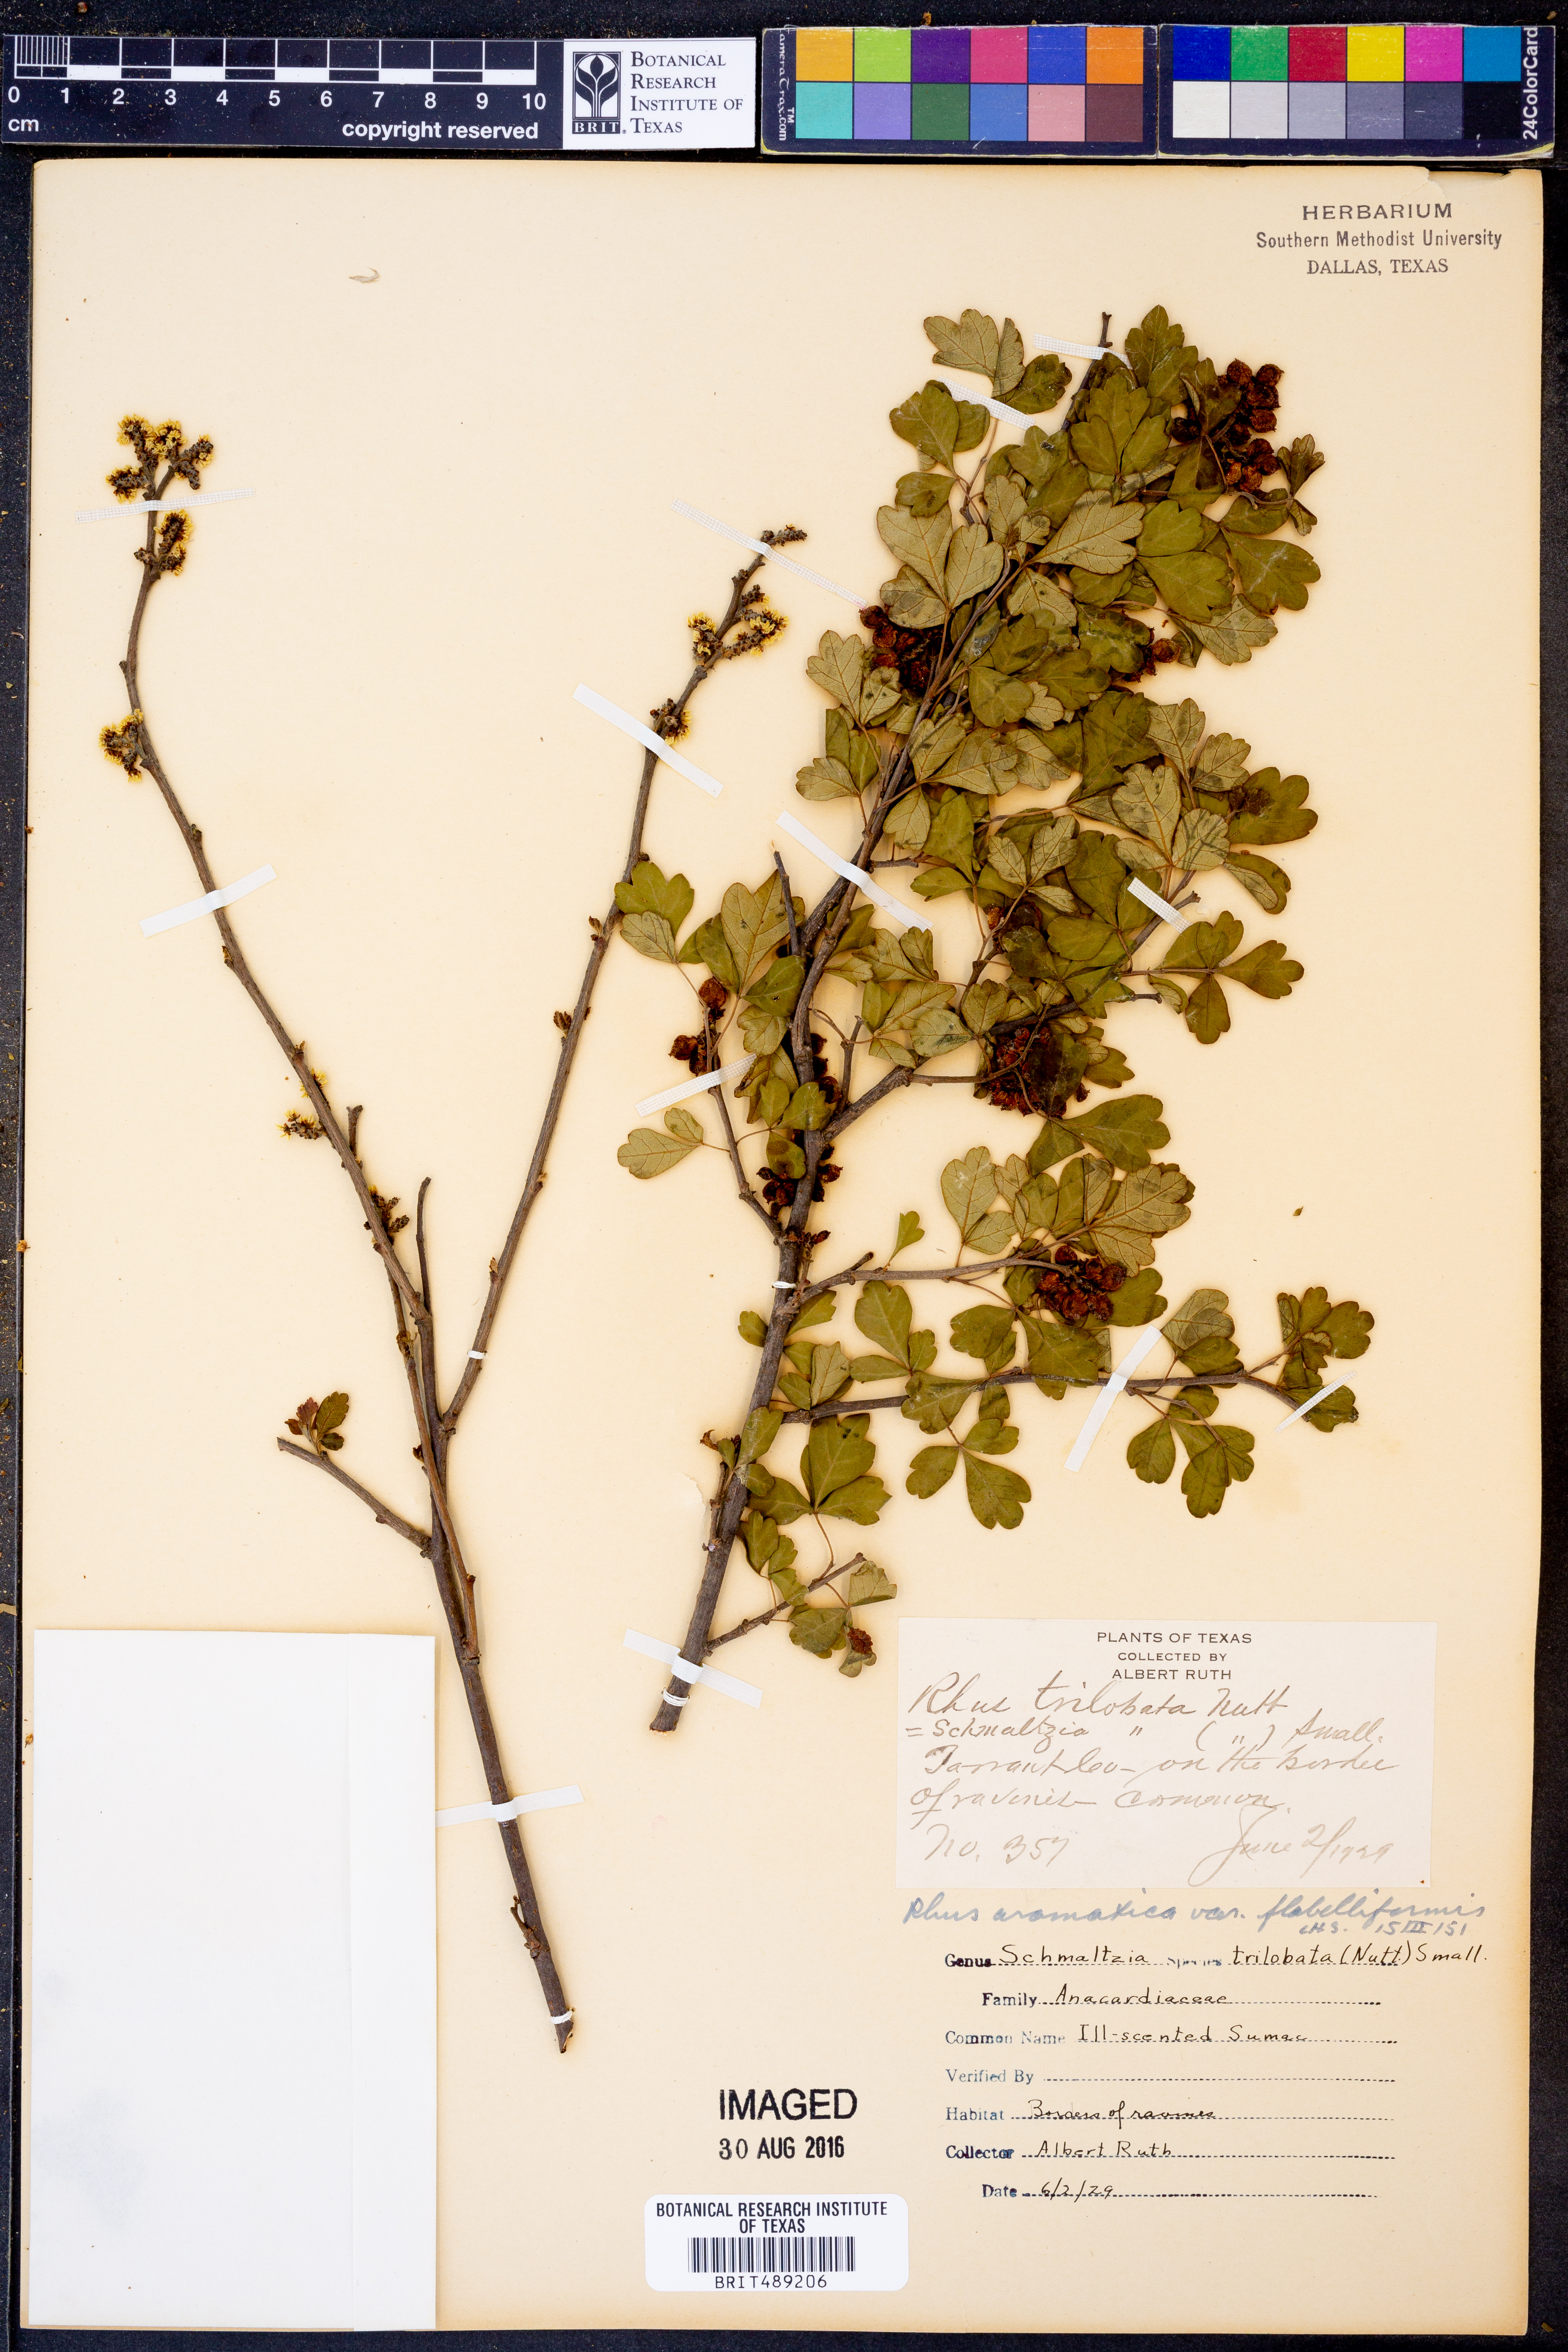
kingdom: Plantae
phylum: Tracheophyta
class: Magnoliopsida
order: Sapindales
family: Anacardiaceae
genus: Rhus
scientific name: Rhus trilobata
